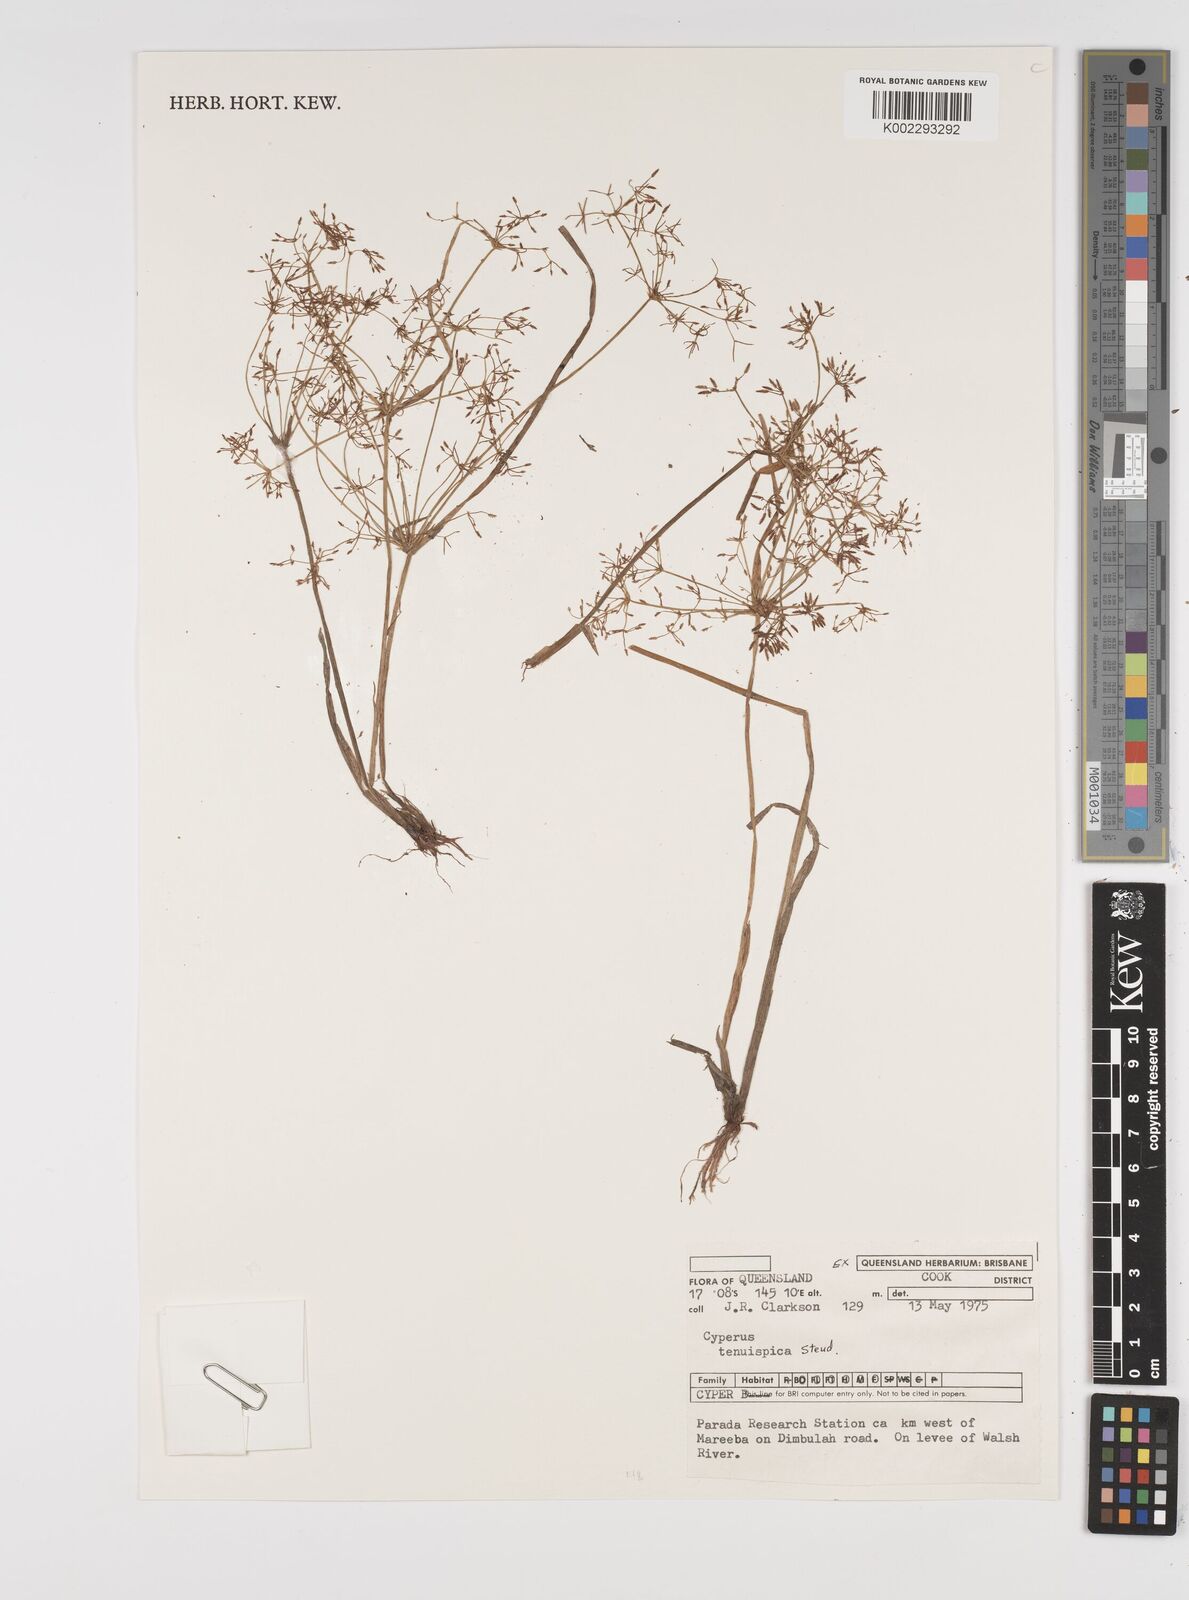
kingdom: Plantae
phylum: Tracheophyta
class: Liliopsida
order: Poales
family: Cyperaceae
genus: Cyperus
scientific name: Cyperus tenuispica
